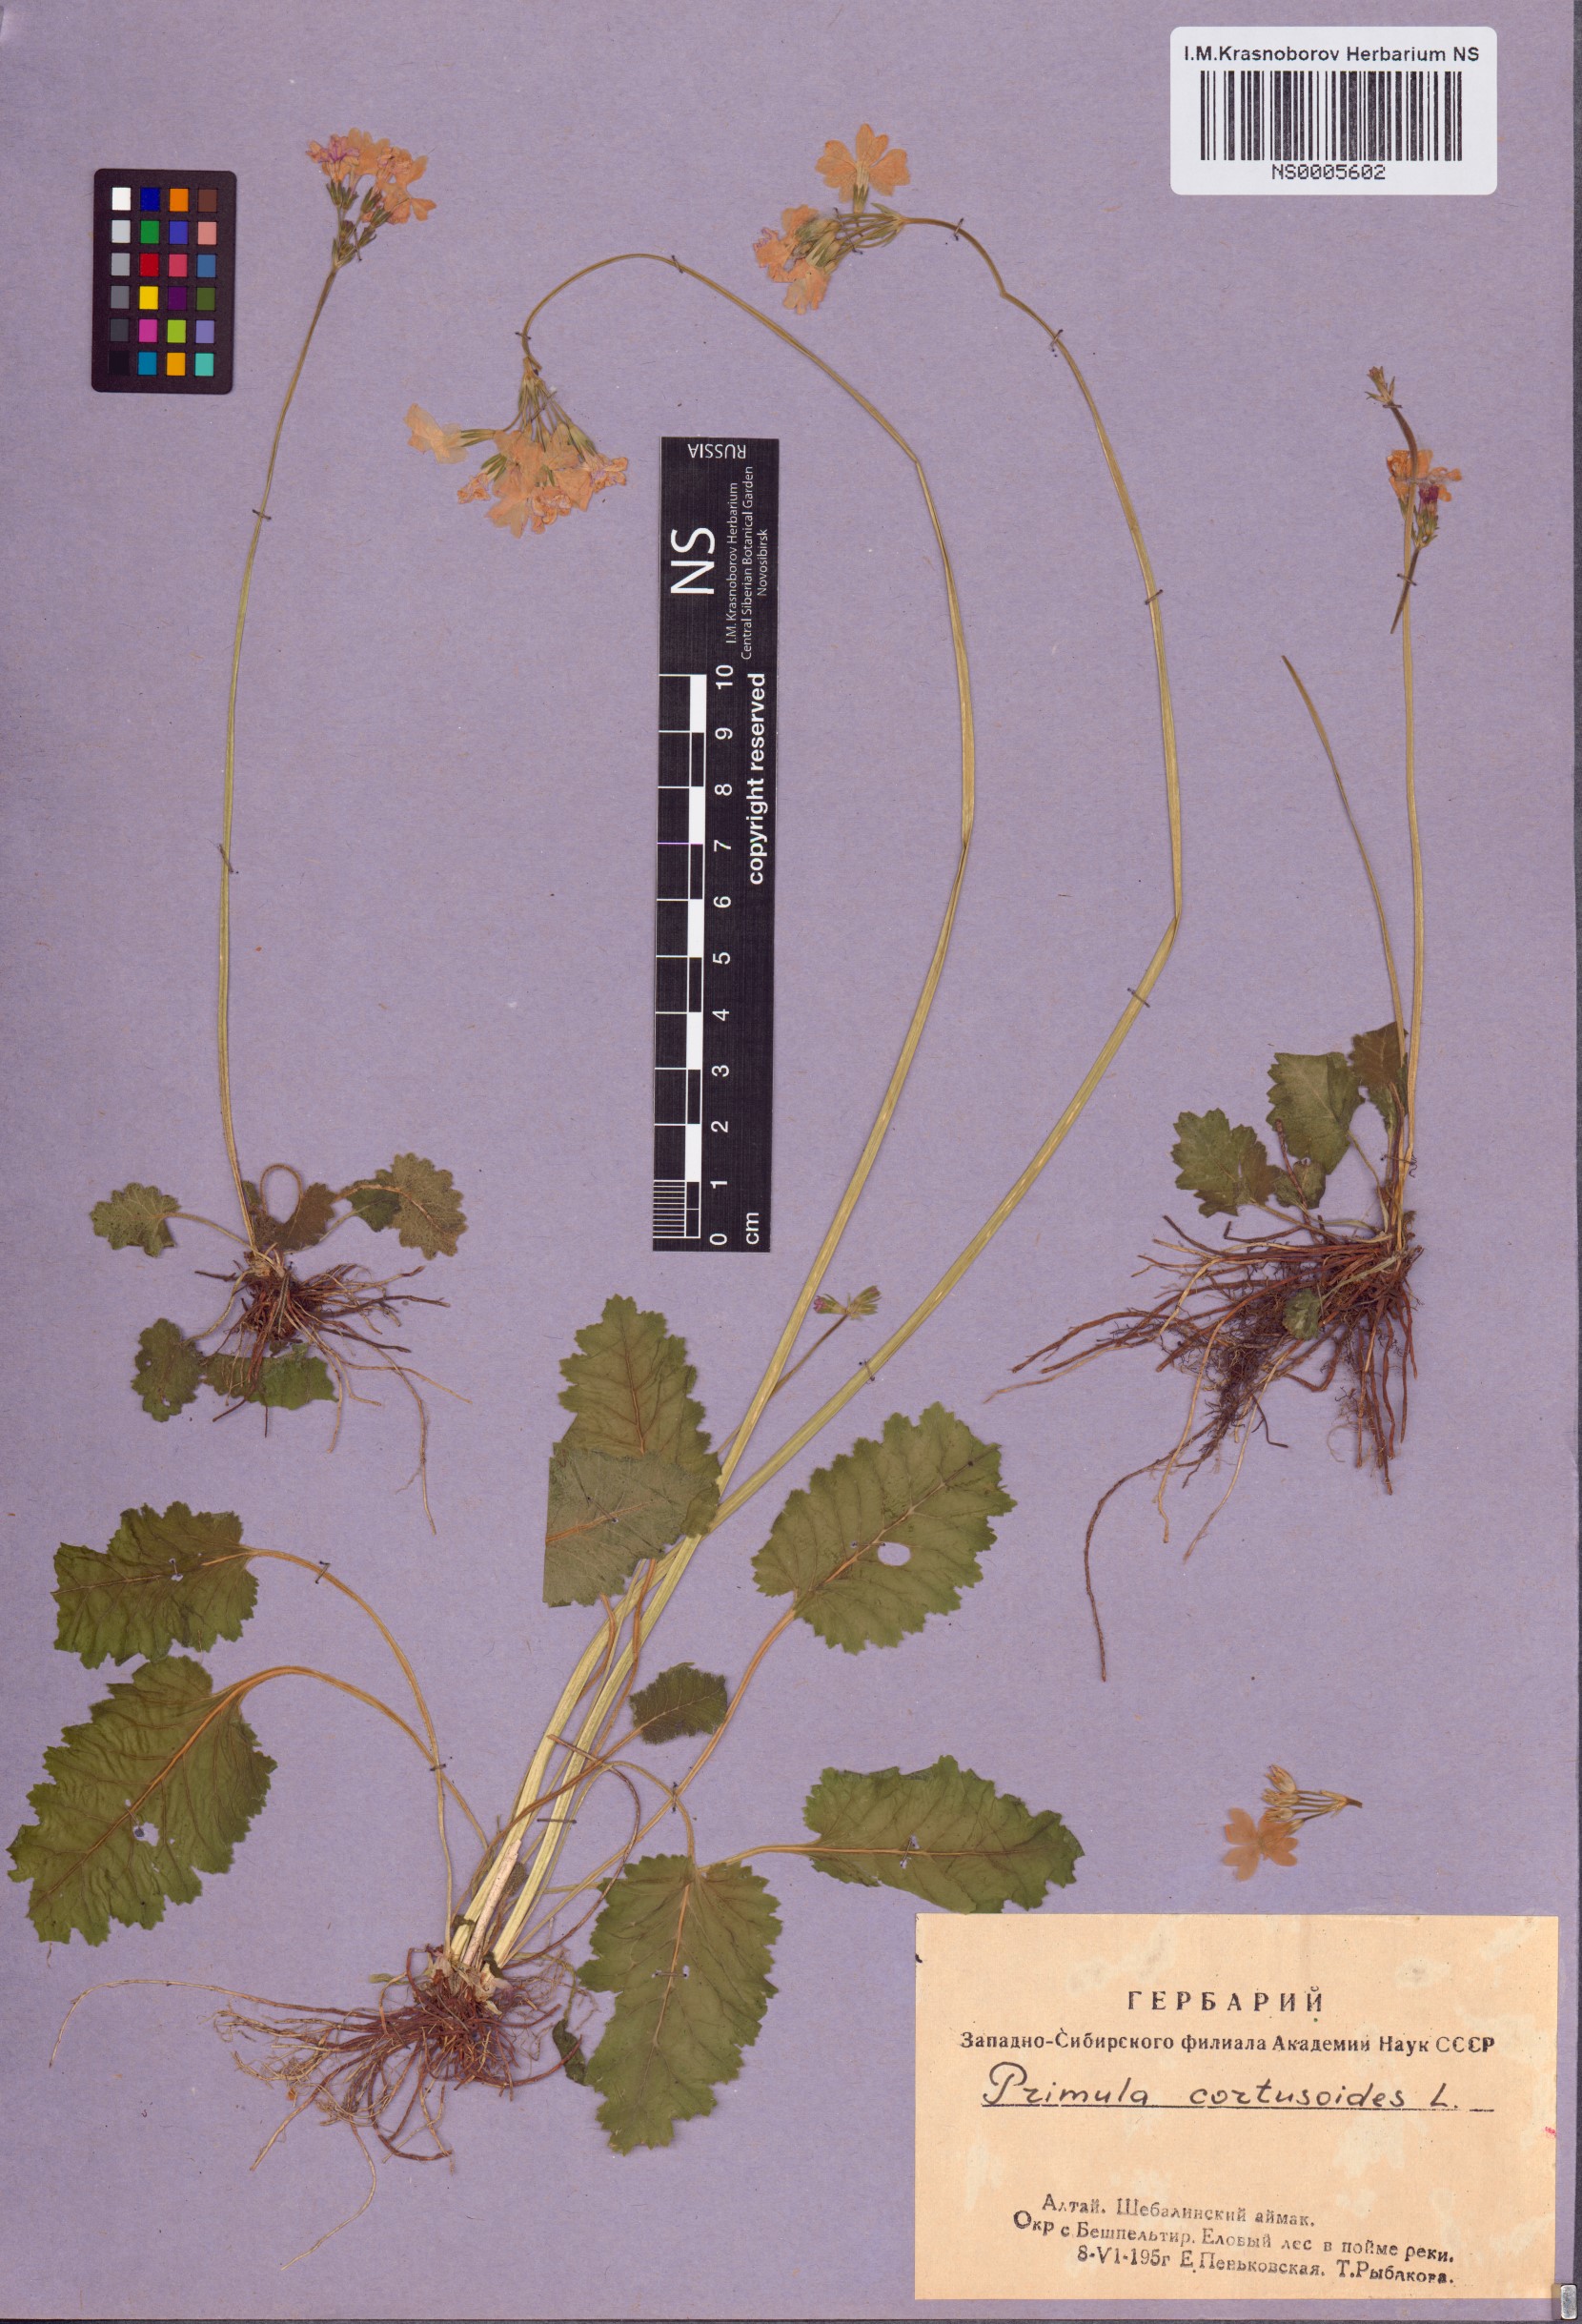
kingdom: Plantae
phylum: Tracheophyta
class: Magnoliopsida
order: Ericales
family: Primulaceae
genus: Primula
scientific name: Primula cortusoides
